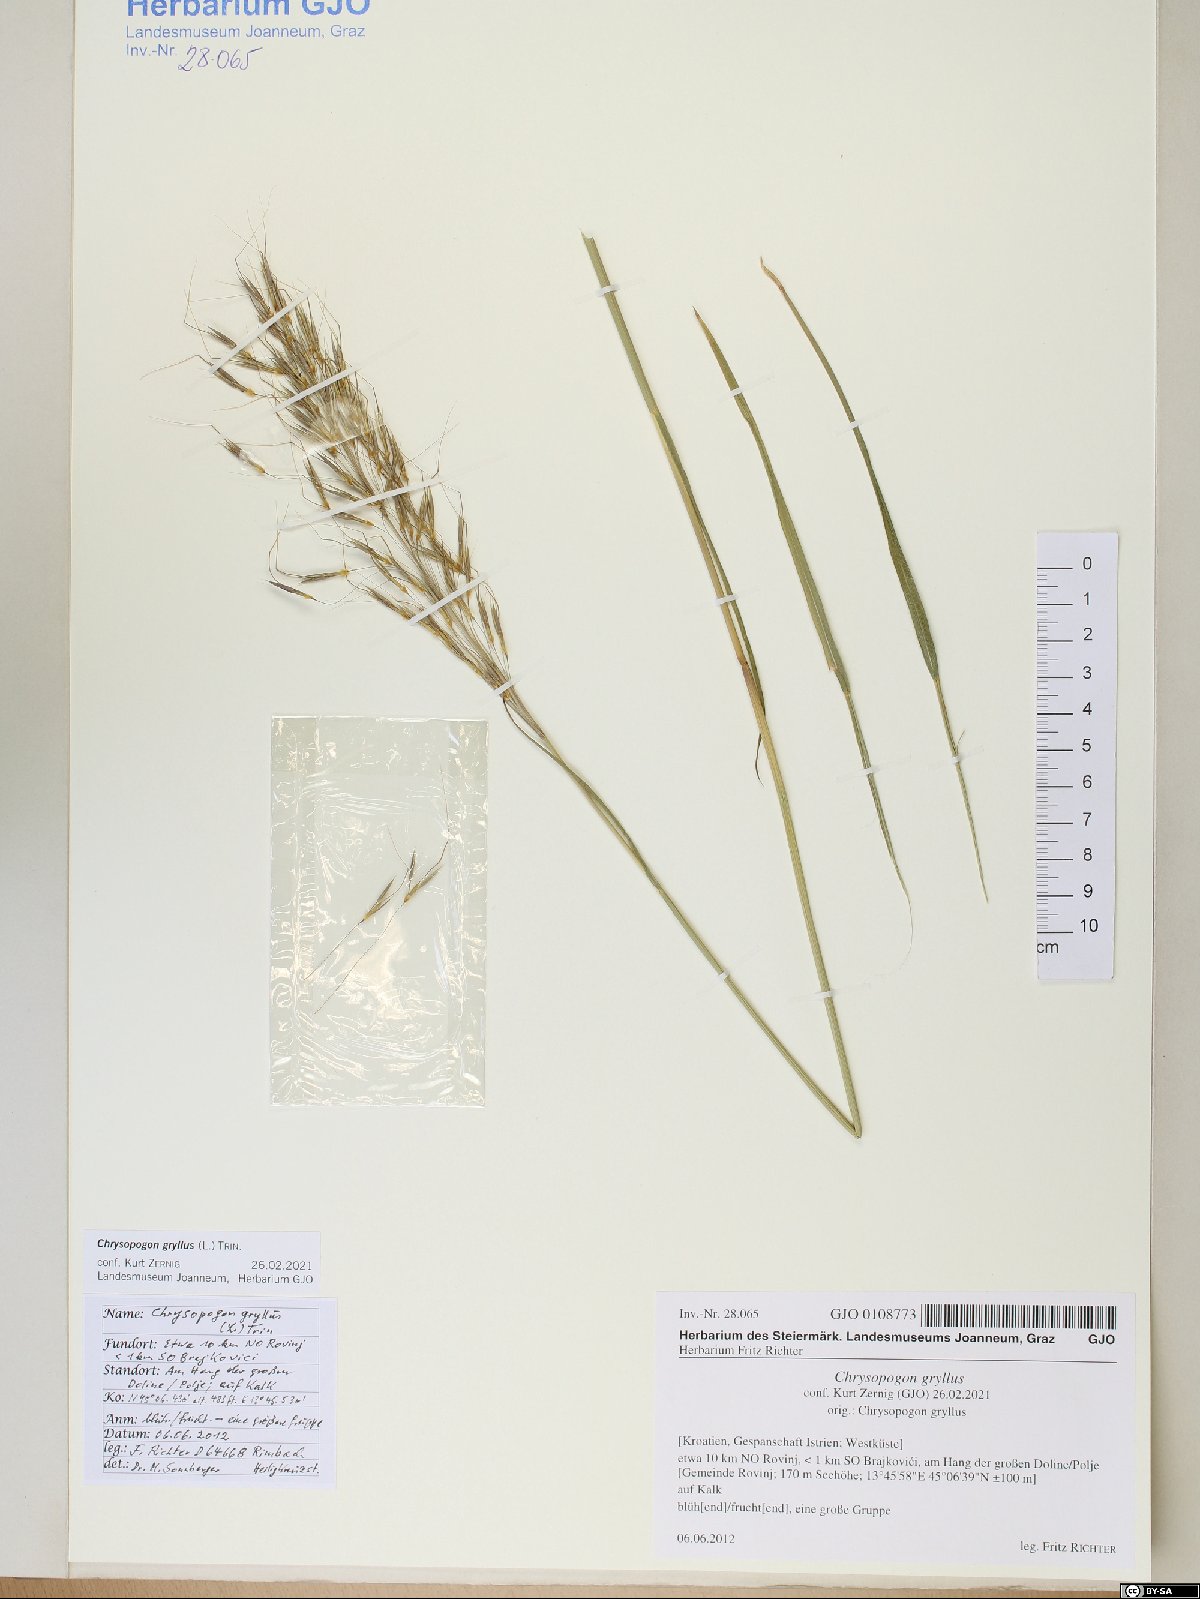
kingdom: Plantae
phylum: Tracheophyta
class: Liliopsida
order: Poales
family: Poaceae
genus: Chrysopogon
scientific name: Chrysopogon gryllus
